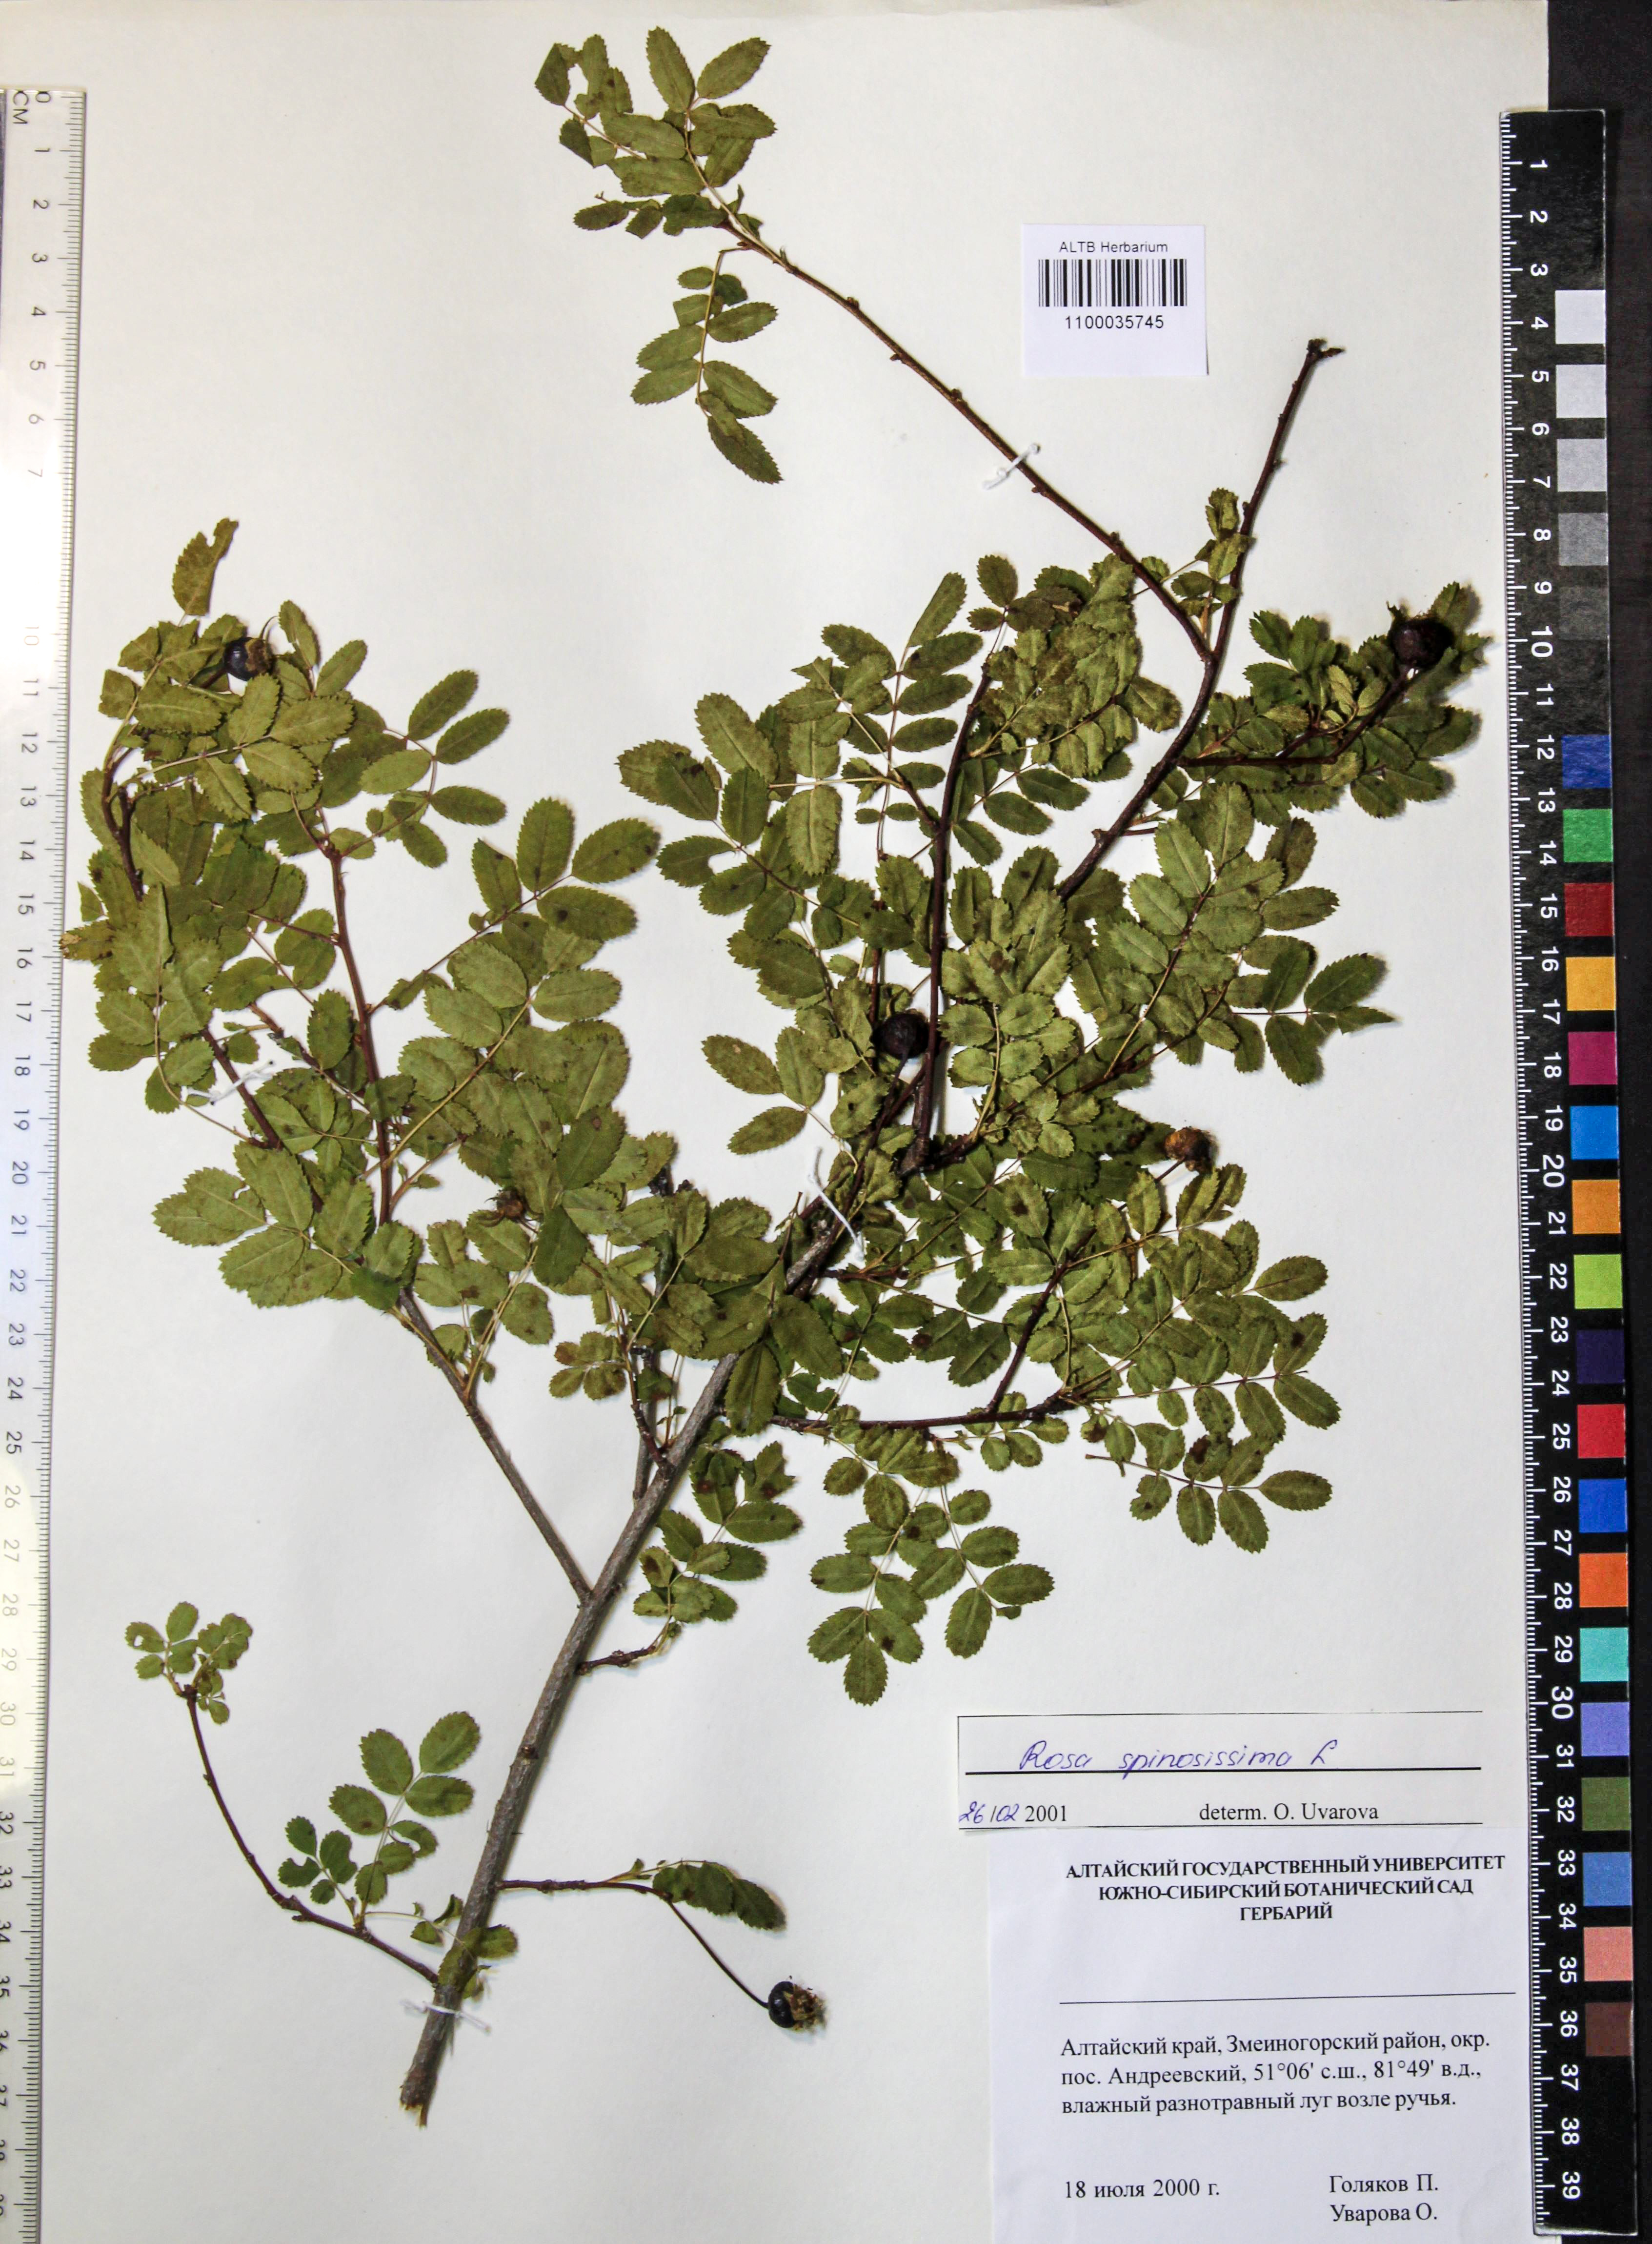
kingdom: Plantae
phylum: Tracheophyta
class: Magnoliopsida
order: Rosales
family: Rosaceae
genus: Rosa
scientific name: Rosa spinosissima
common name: Burnet rose
